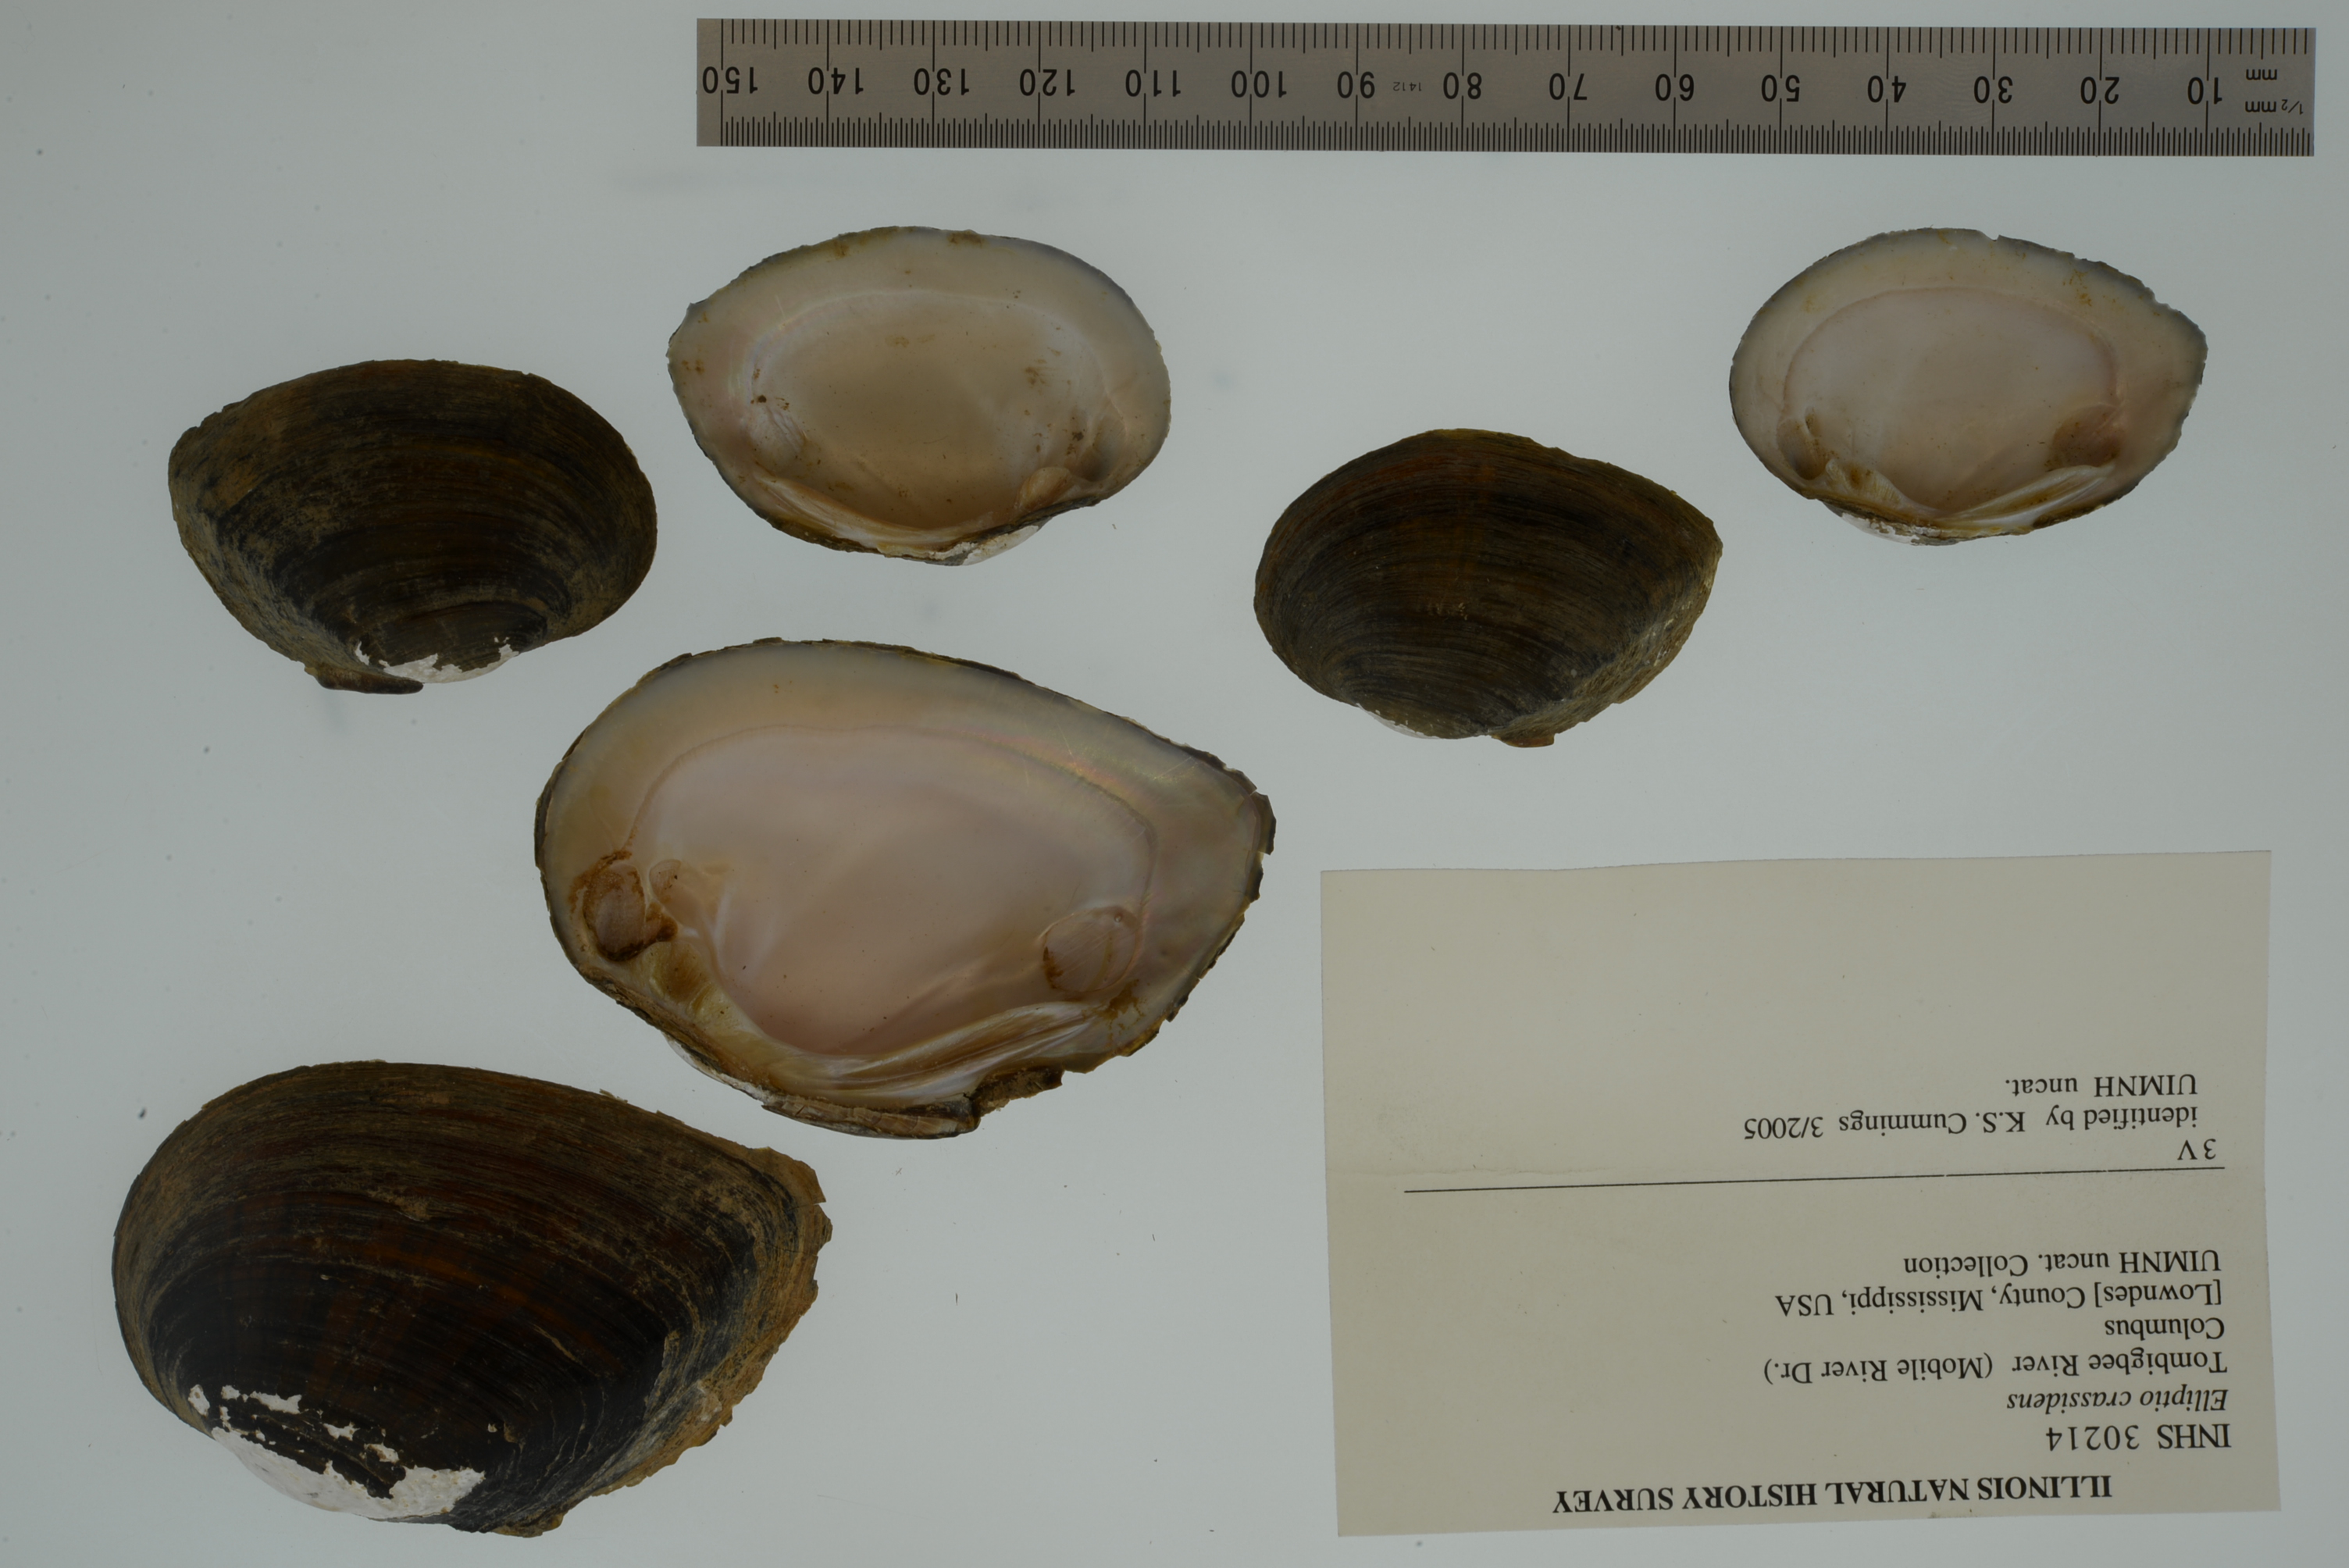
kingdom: Animalia
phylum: Mollusca
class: Bivalvia
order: Unionida
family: Unionidae
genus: Elliptio
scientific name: Elliptio crassidens
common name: Blue ham
